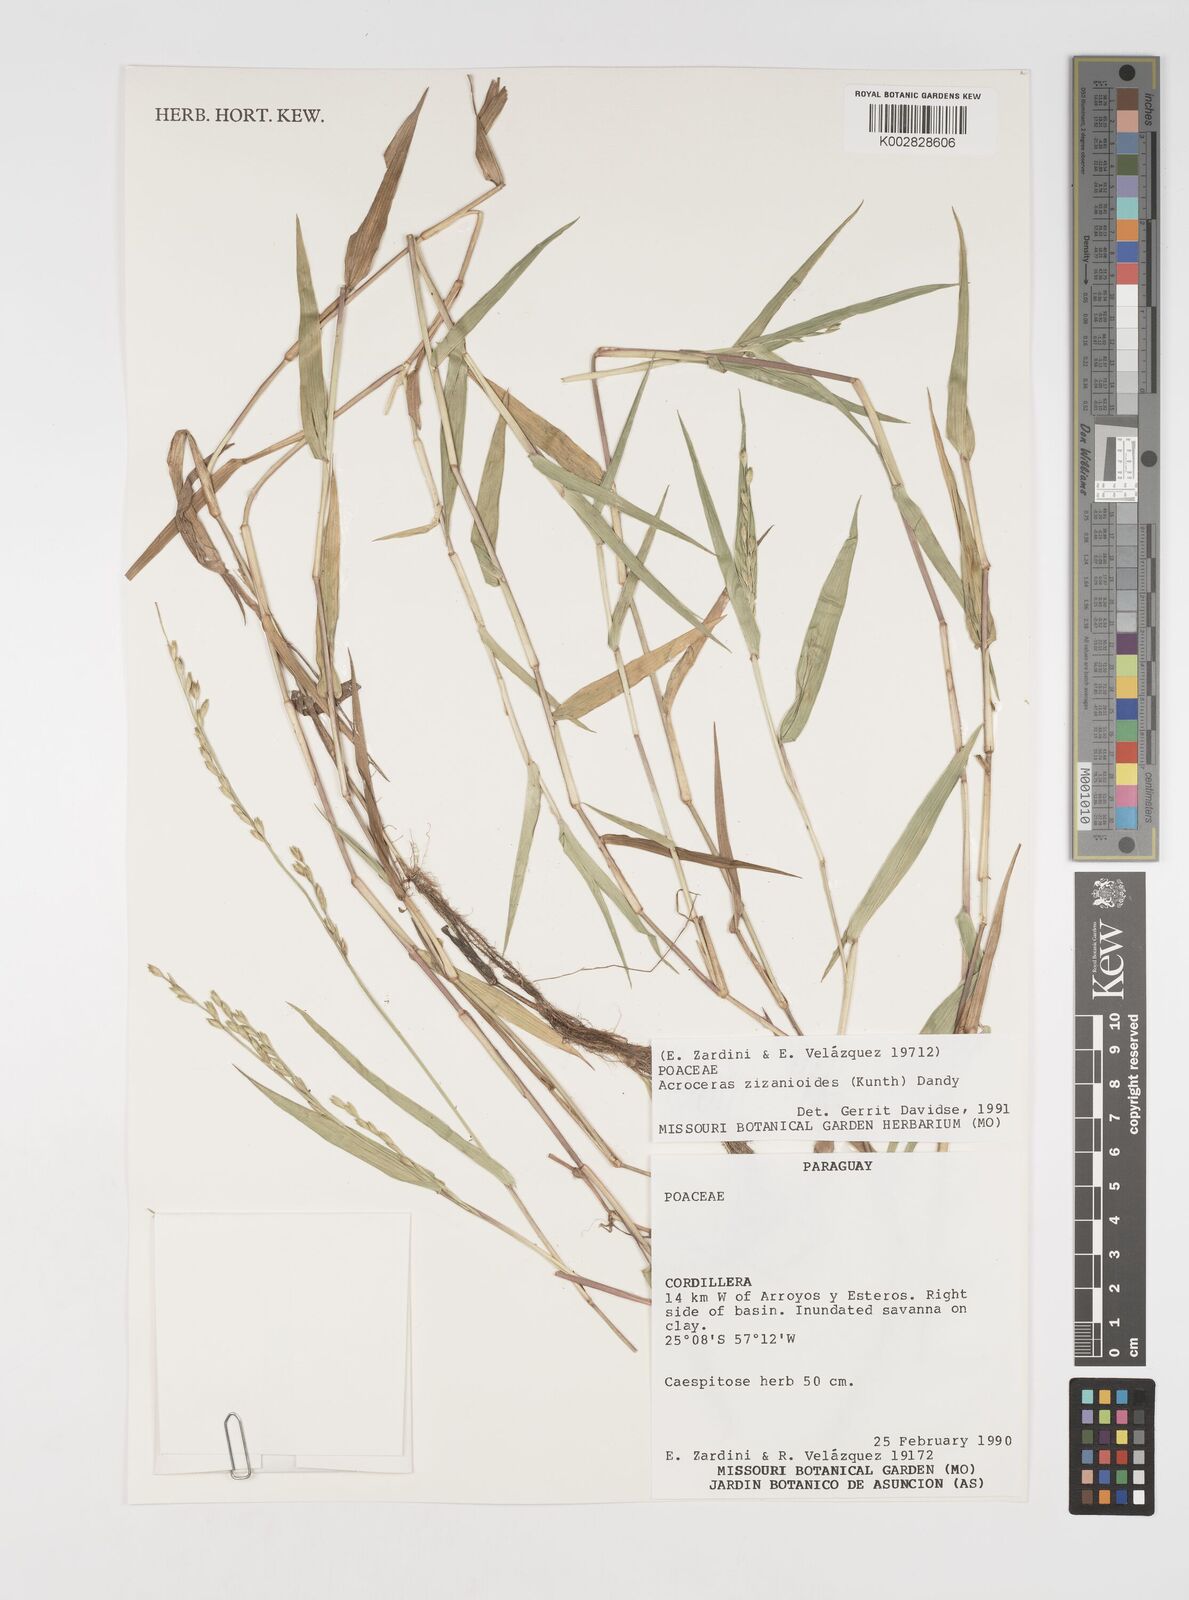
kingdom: Plantae
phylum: Tracheophyta
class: Liliopsida
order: Poales
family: Poaceae
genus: Acroceras
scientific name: Acroceras zizanioides
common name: Oat grass
